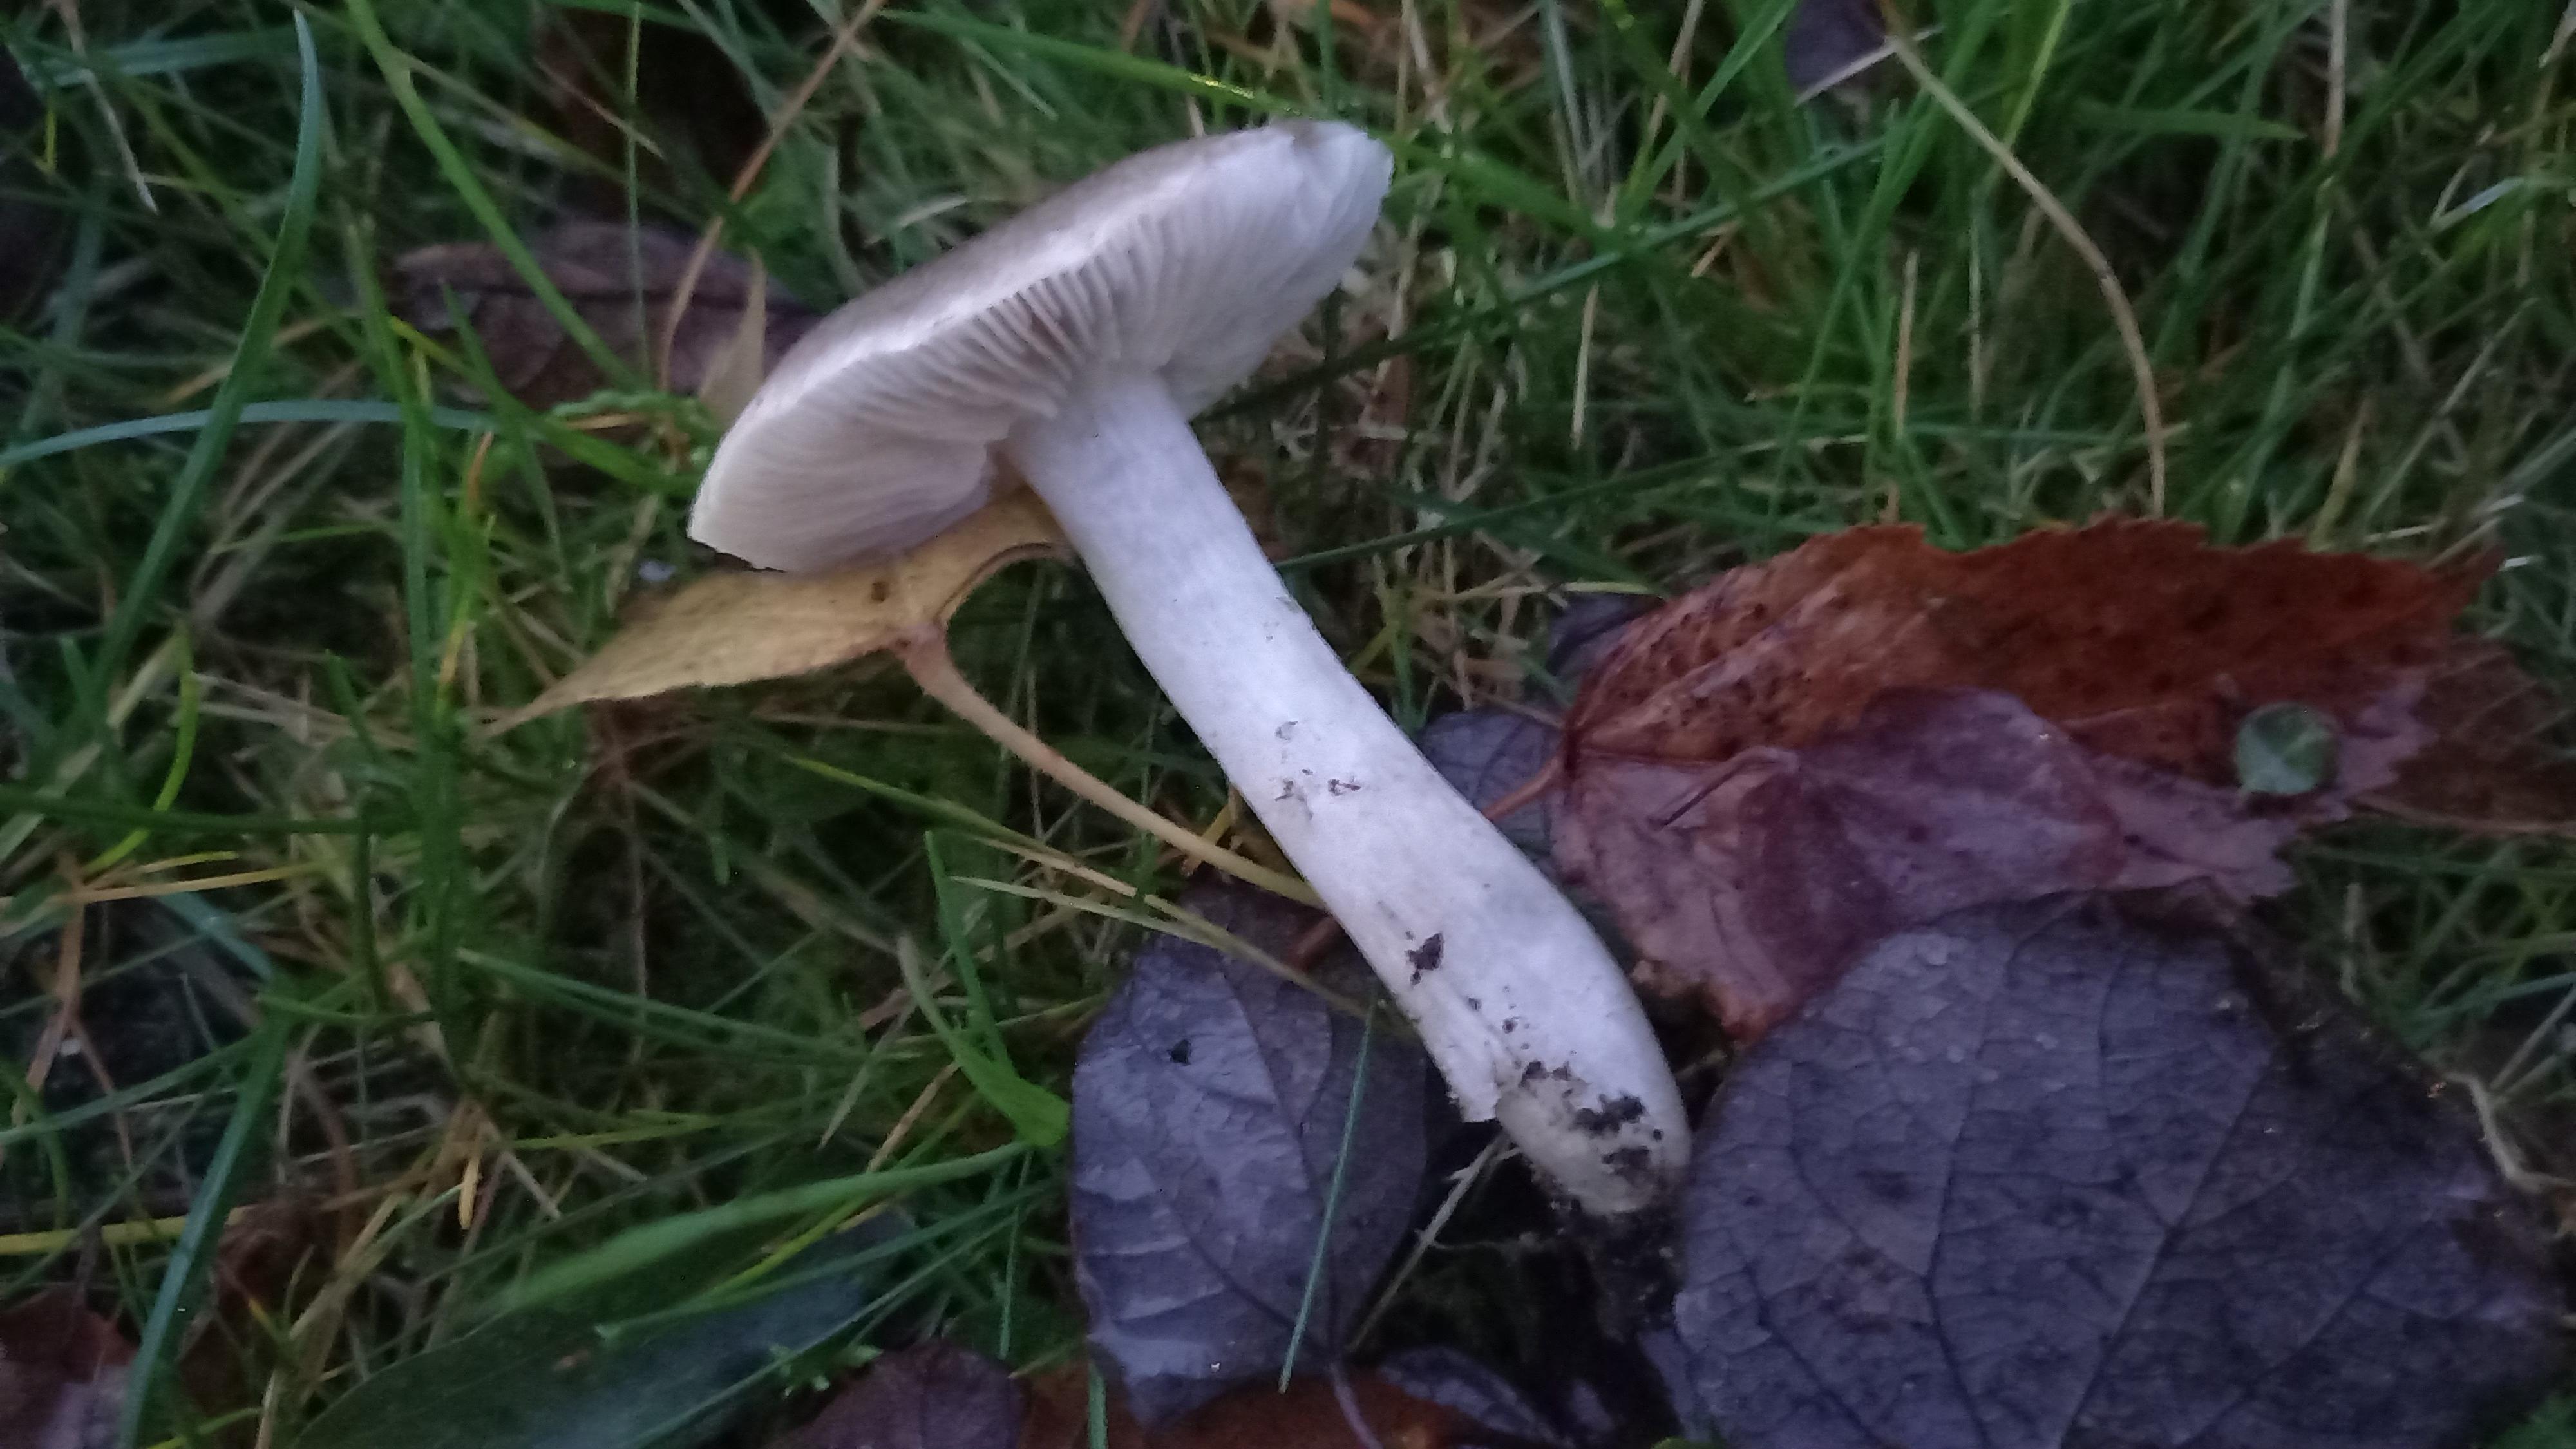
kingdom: Fungi
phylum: Basidiomycota
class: Agaricomycetes
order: Agaricales
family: Tricholomataceae
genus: Tricholoma
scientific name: Tricholoma scalpturatum
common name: gulplettet ridderhat
